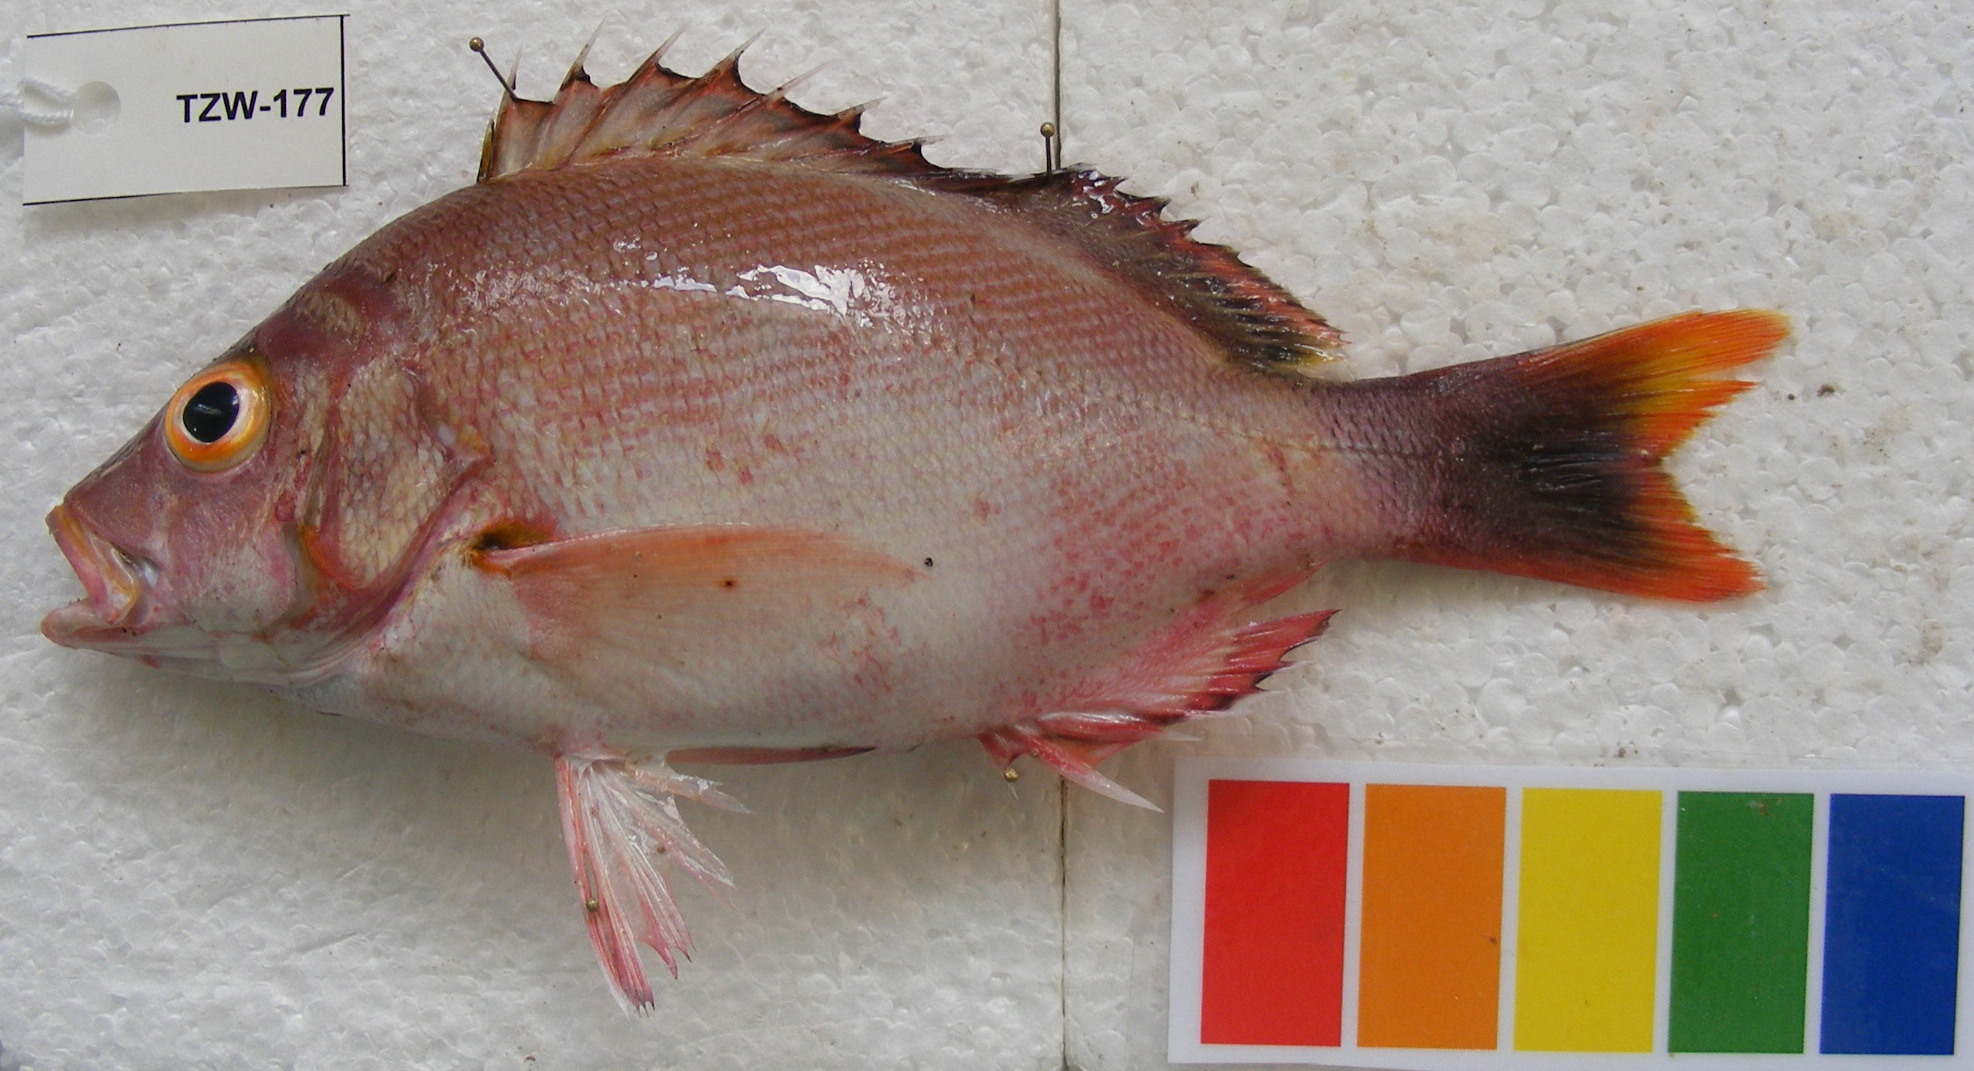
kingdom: Animalia
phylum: Chordata
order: Perciformes
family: Lutjanidae
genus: Lutjanus
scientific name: Lutjanus gibbus
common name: Humpback snapper
